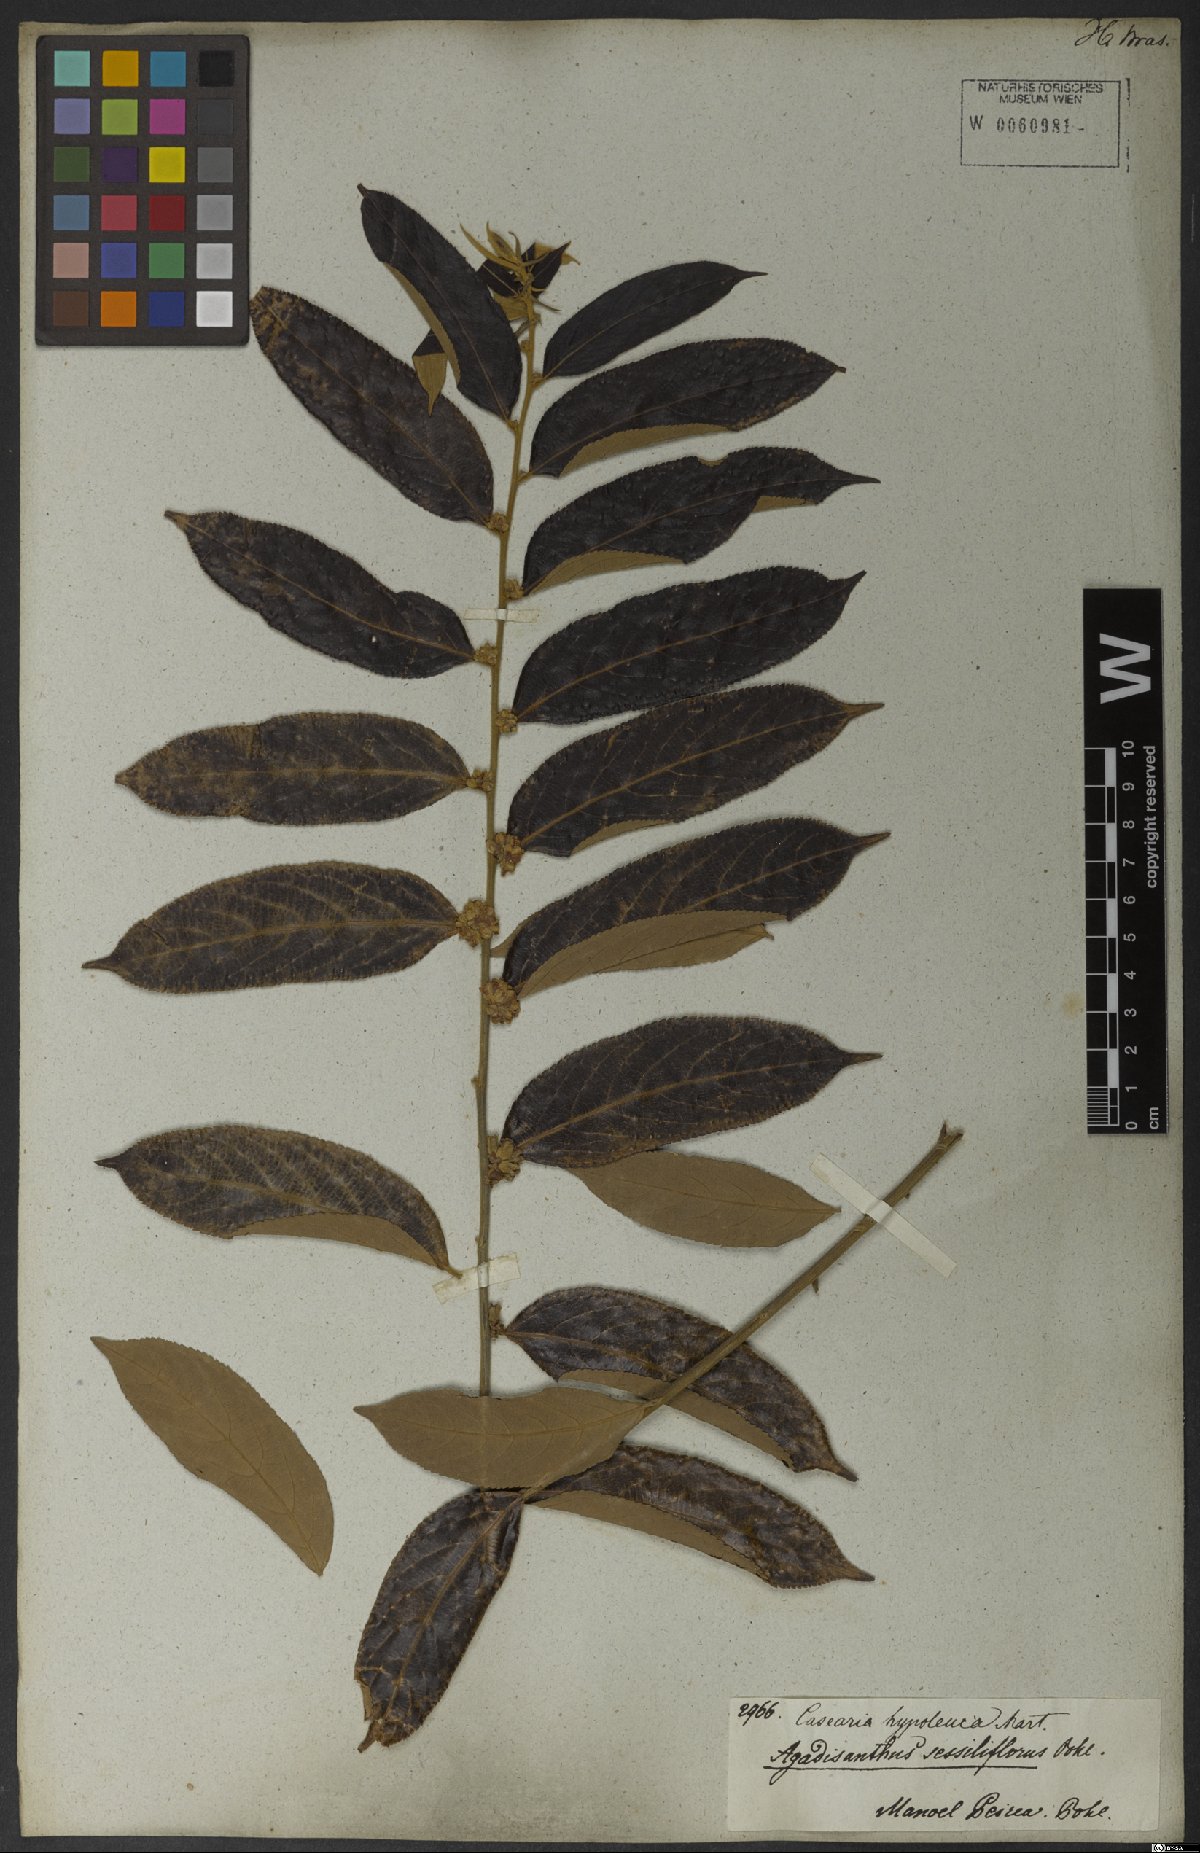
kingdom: Plantae
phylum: Tracheophyta
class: Magnoliopsida
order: Malpighiales
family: Salicaceae
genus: Casearia
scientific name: Casearia grandiflora
